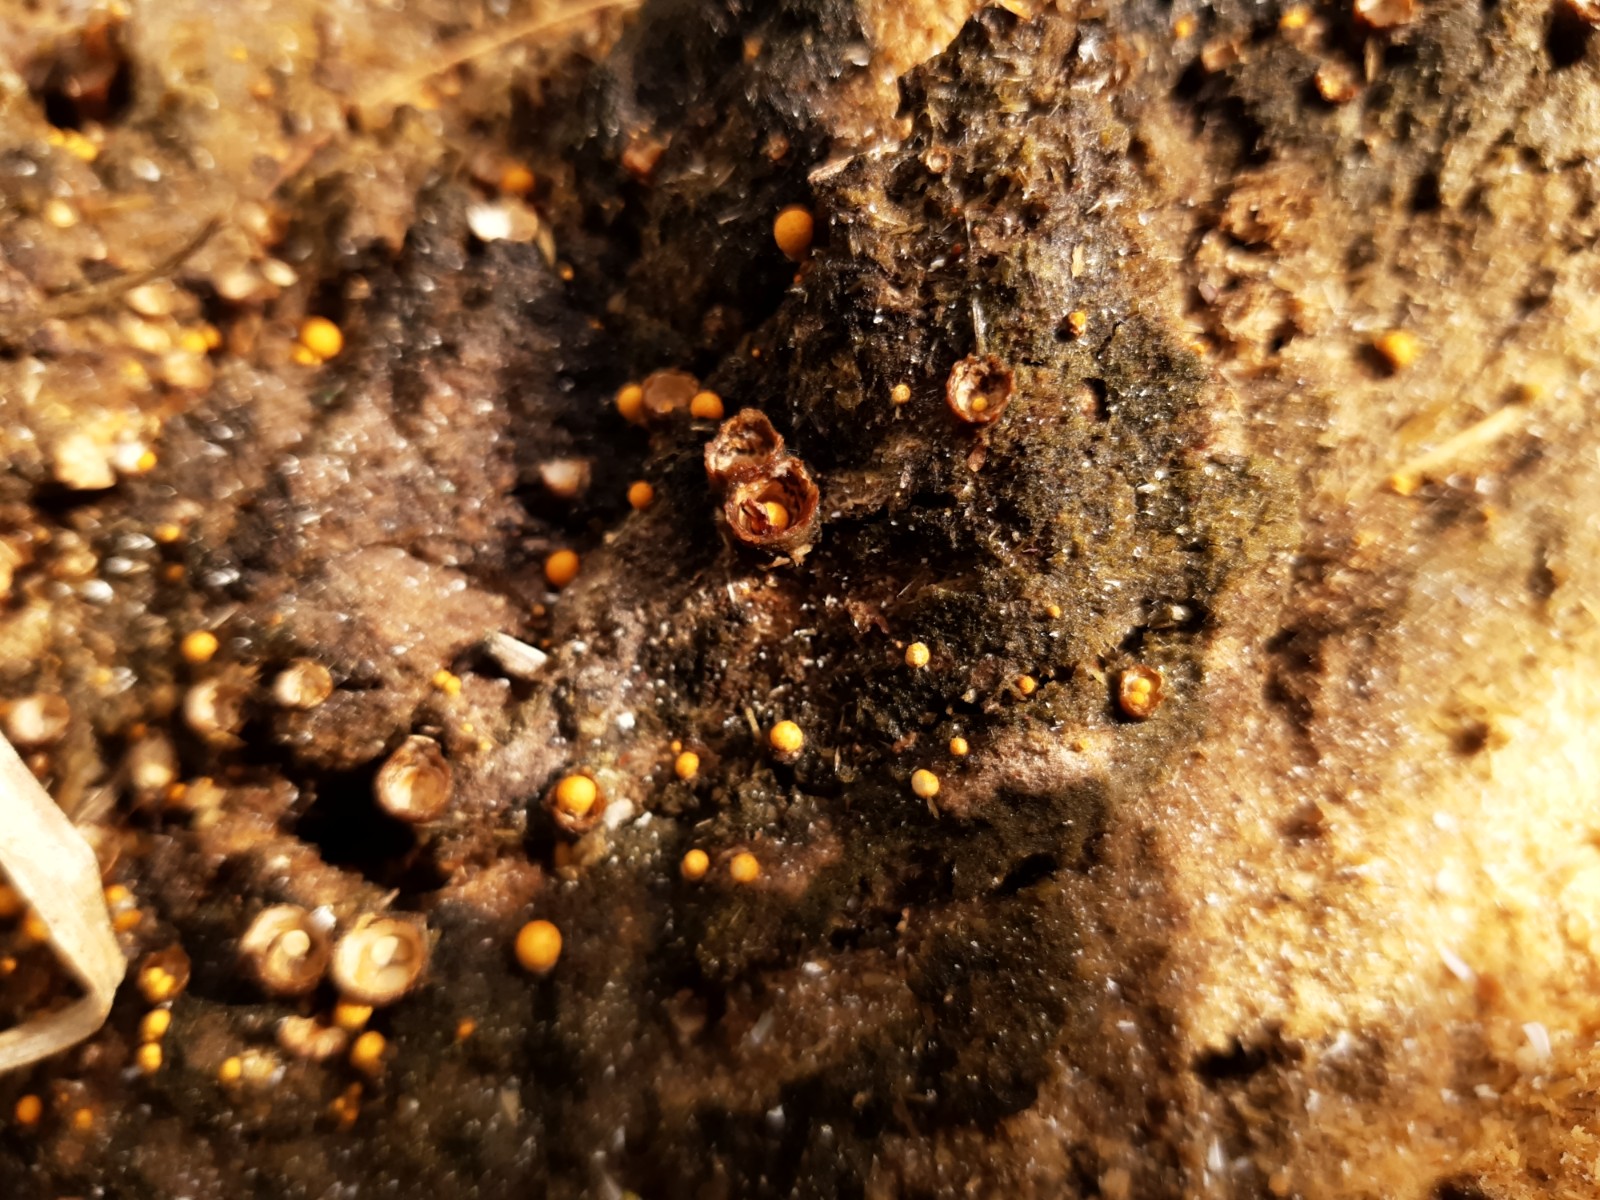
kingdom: Fungi
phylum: Basidiomycota
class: Agaricomycetes
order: Agaricales
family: Nidulariaceae
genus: Crucibulum
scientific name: Crucibulum crucibuliforme
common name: krukkesvamp
